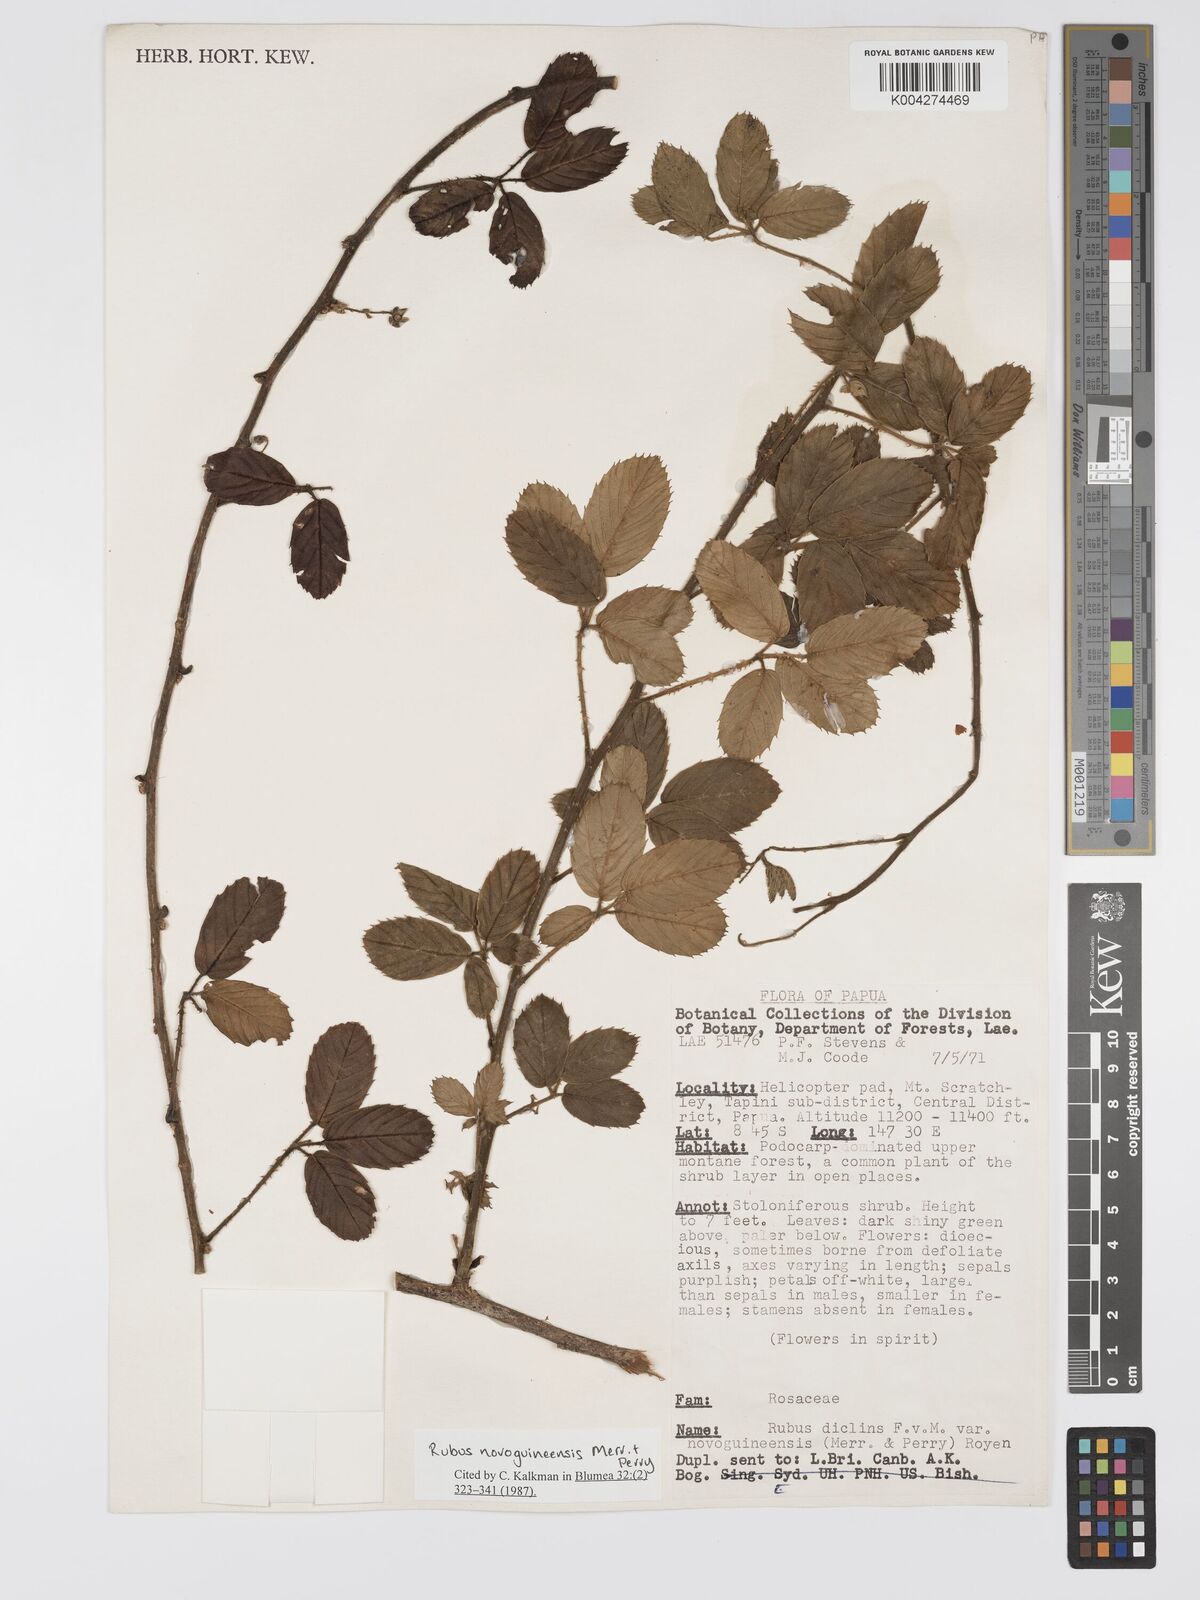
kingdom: Plantae
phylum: Tracheophyta
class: Magnoliopsida
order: Rosales
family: Rosaceae
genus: Rubus
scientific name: Rubus novoguineensis
